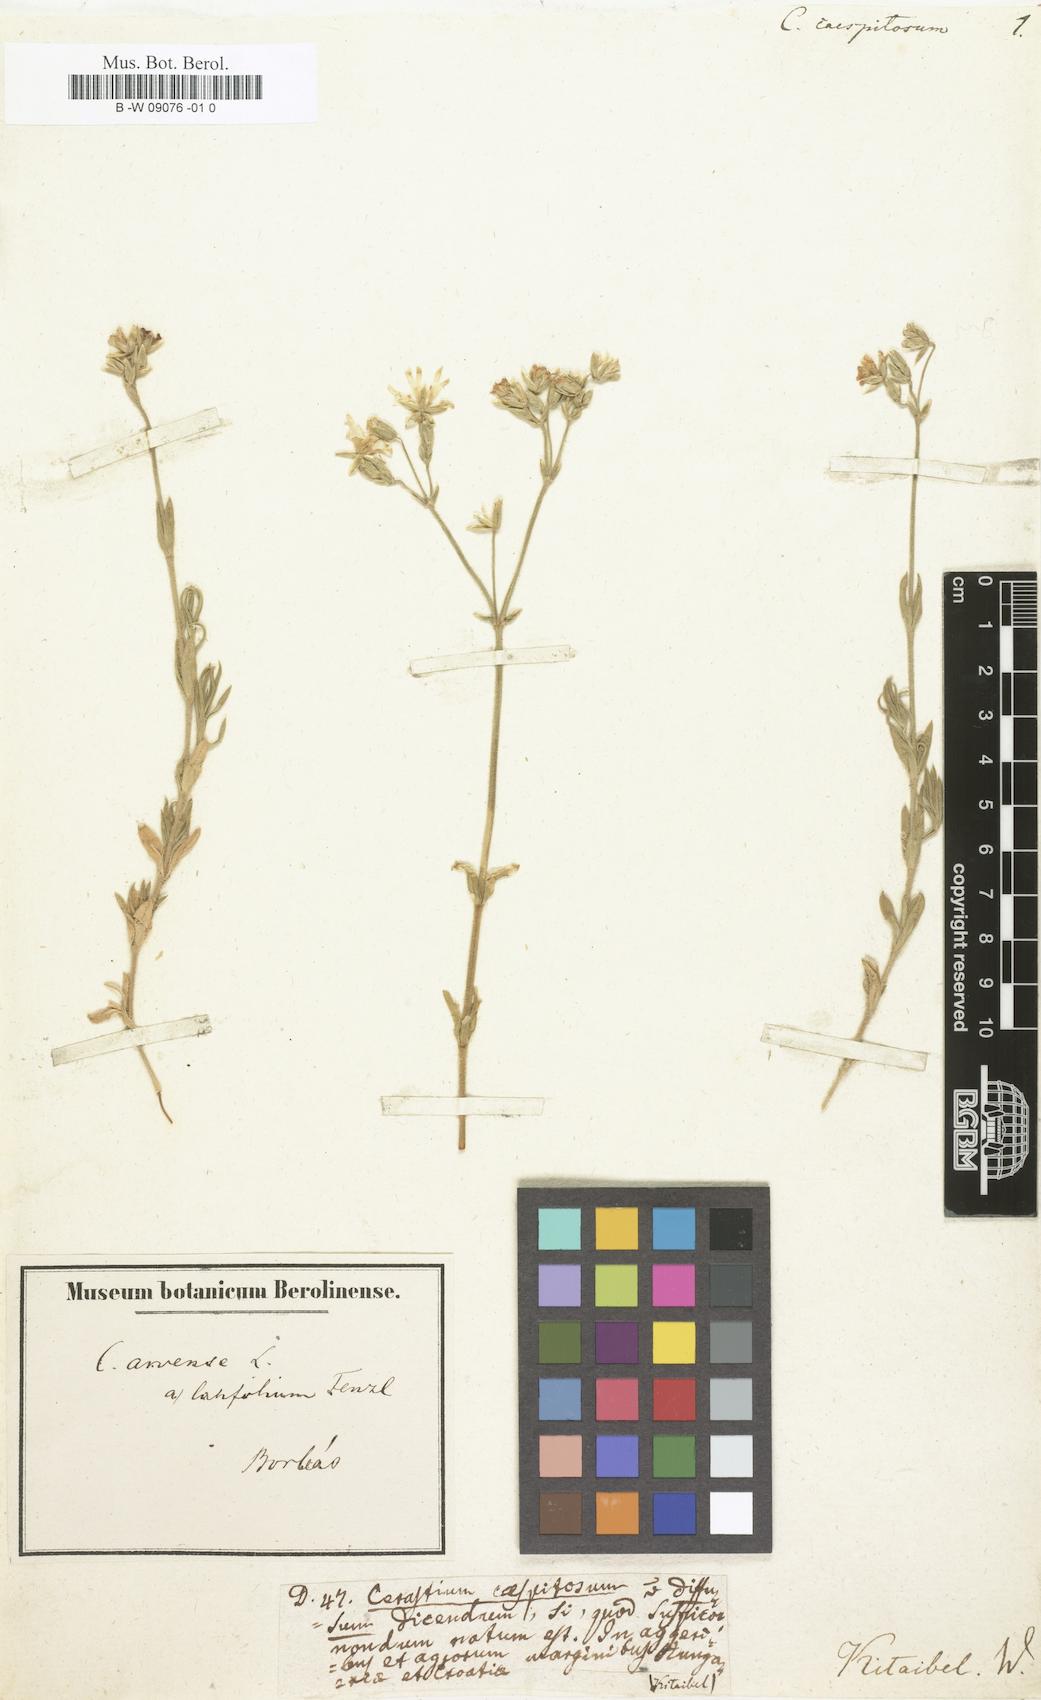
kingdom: Plantae
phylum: Tracheophyta
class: Magnoliopsida
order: Caryophyllales
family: Caryophyllaceae
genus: Cerastium
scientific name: Cerastium
